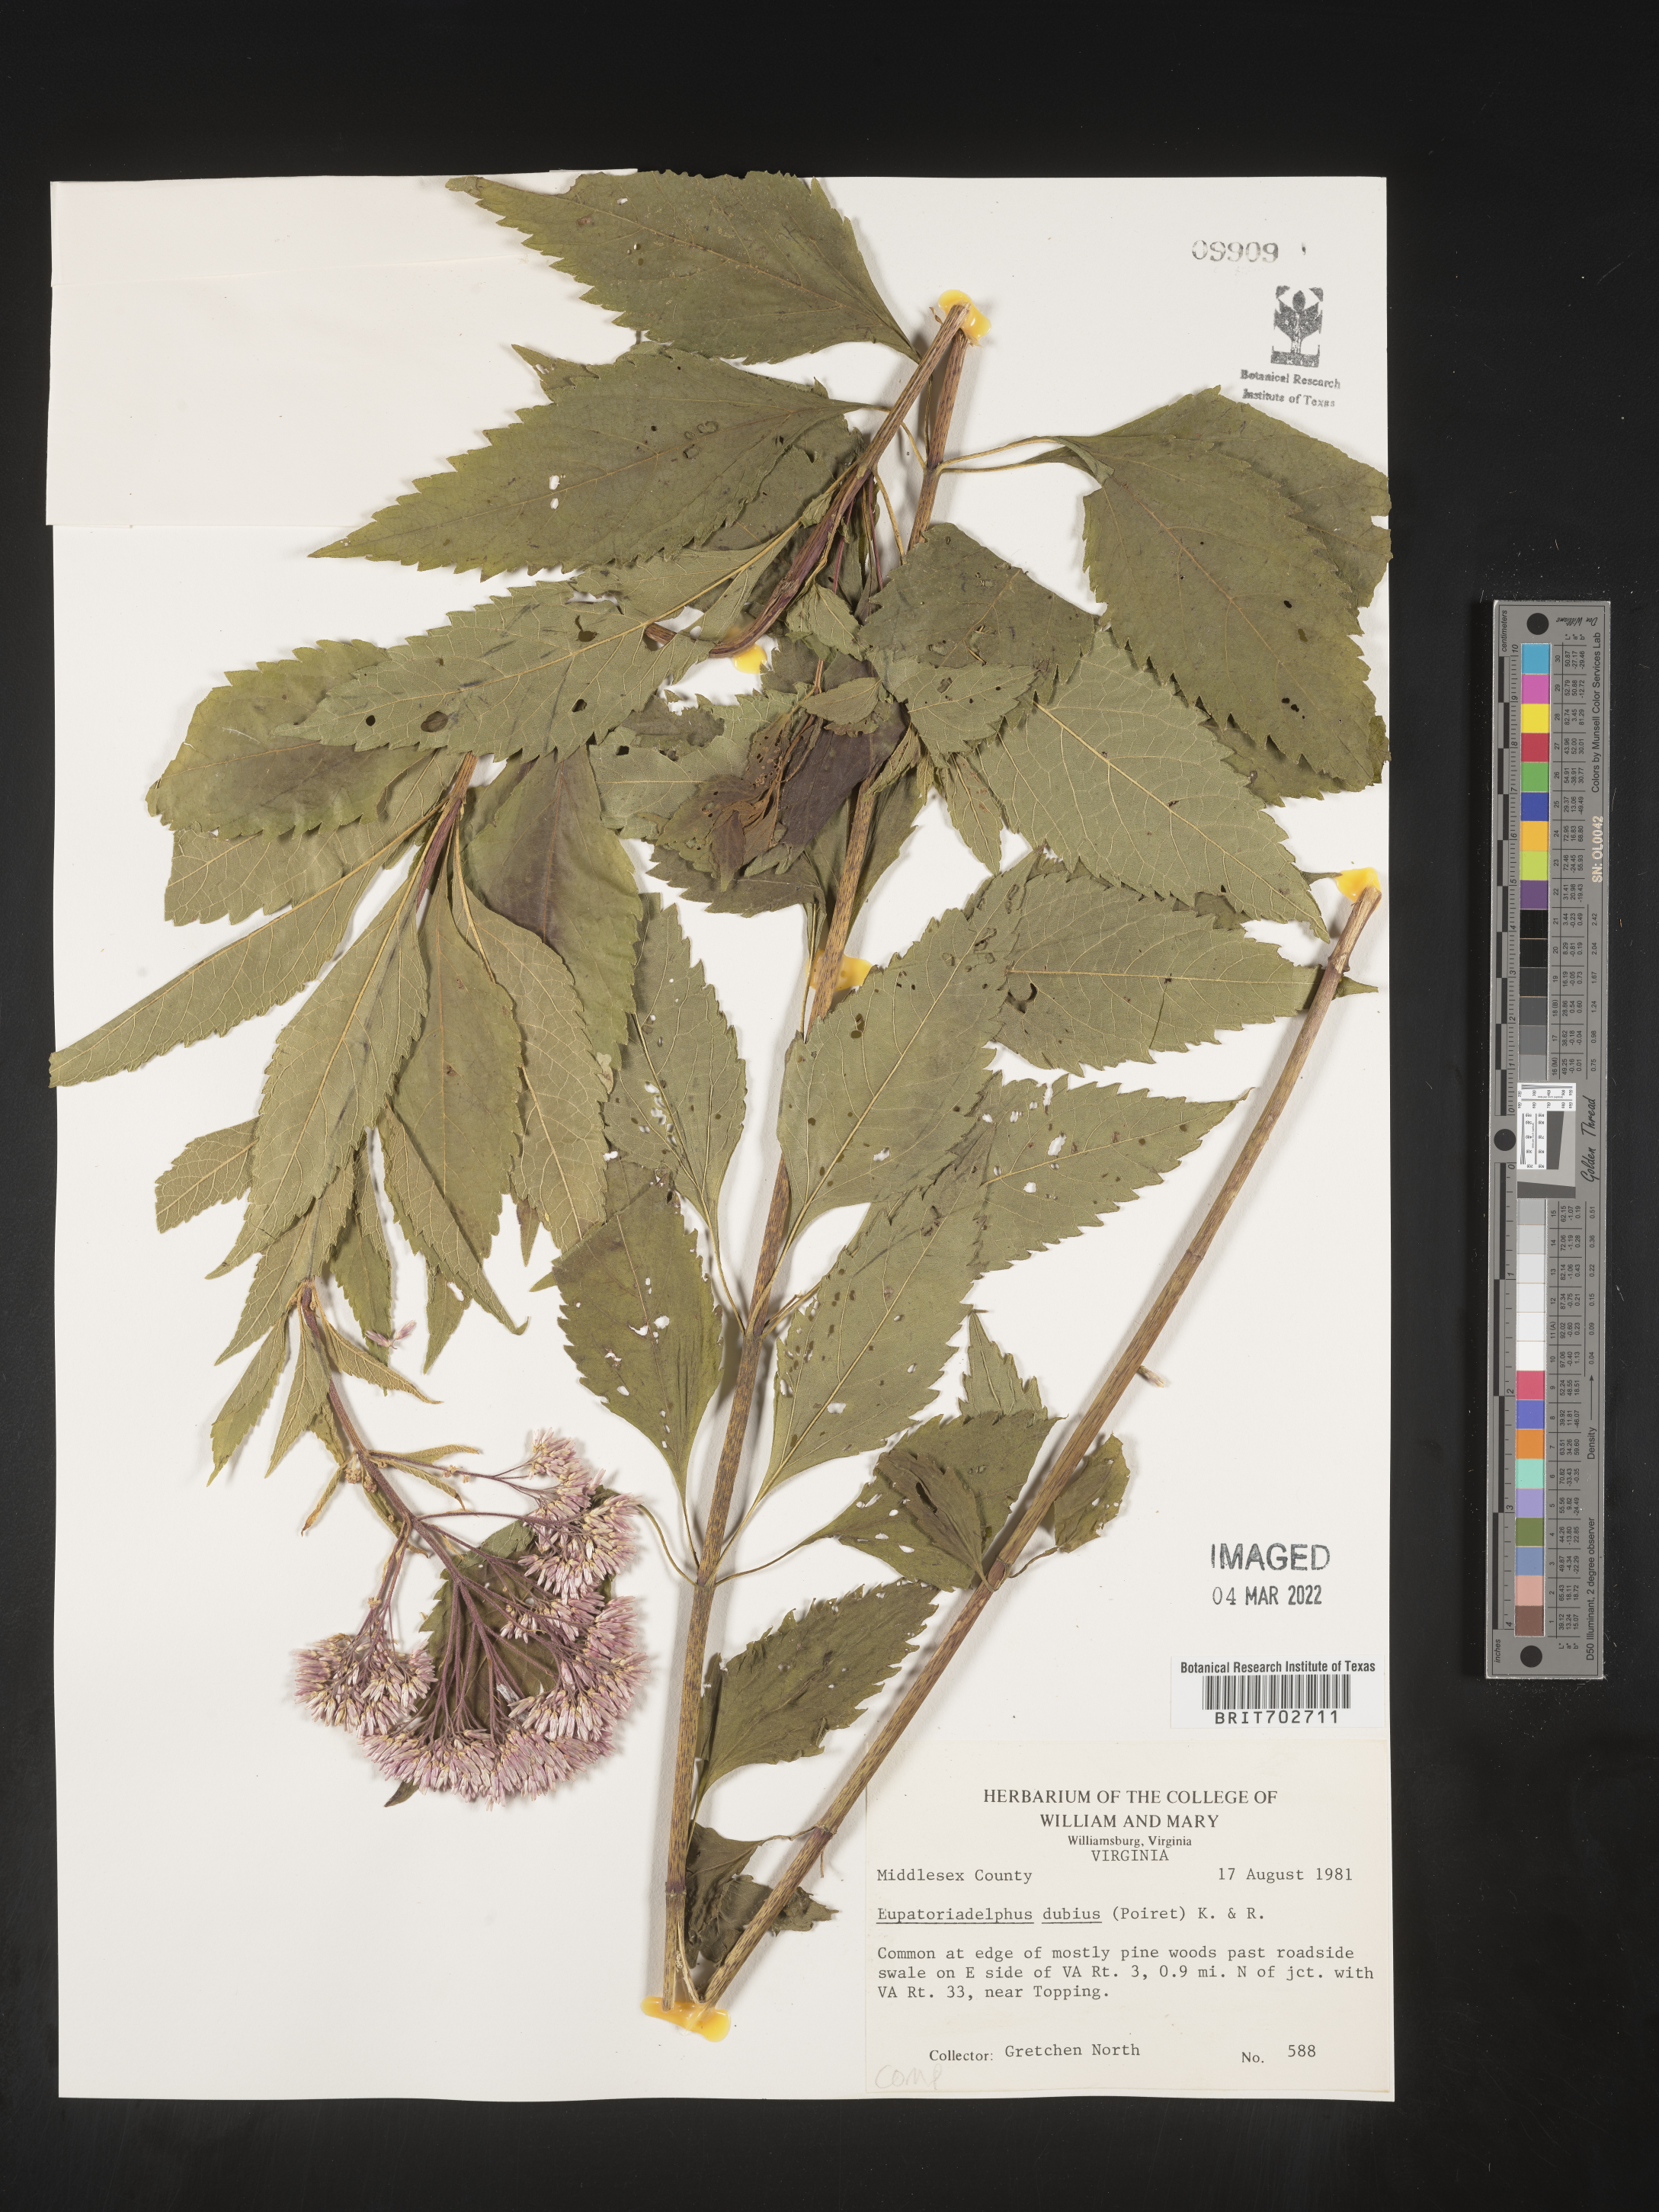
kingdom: Plantae
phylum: Tracheophyta
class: Magnoliopsida
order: Asterales
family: Asteraceae
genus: Eutrochium
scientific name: Eutrochium
